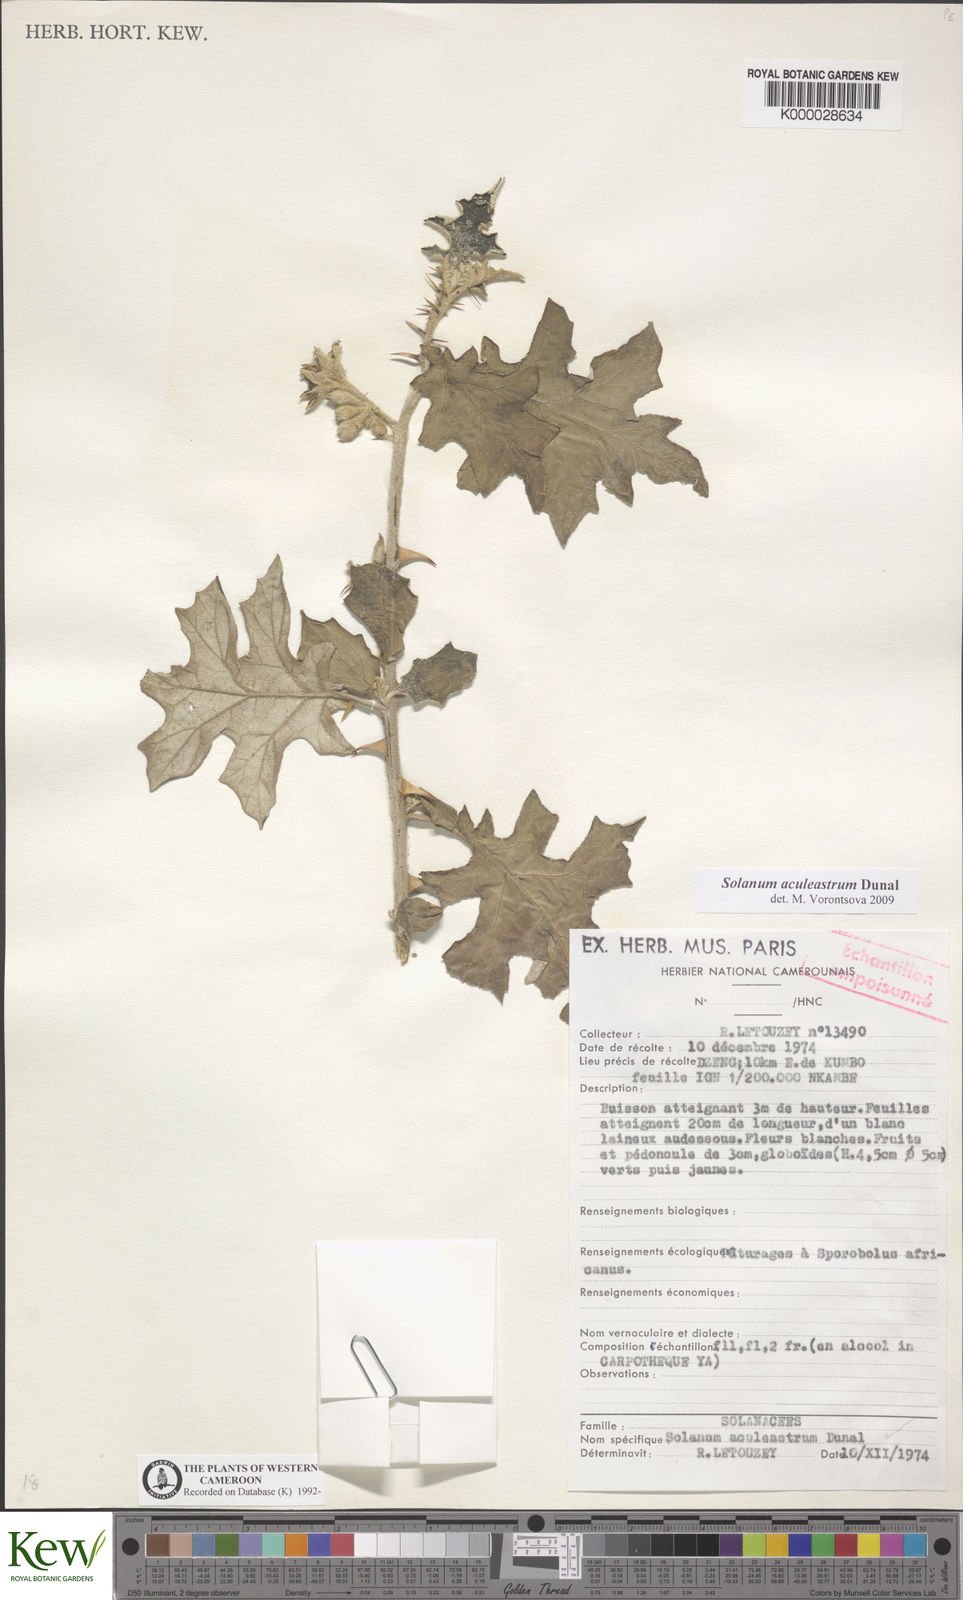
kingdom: Plantae
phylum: Tracheophyta
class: Magnoliopsida
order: Solanales
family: Solanaceae
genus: Solanum
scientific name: Solanum aculeastrum
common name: Goat bitter-apple
